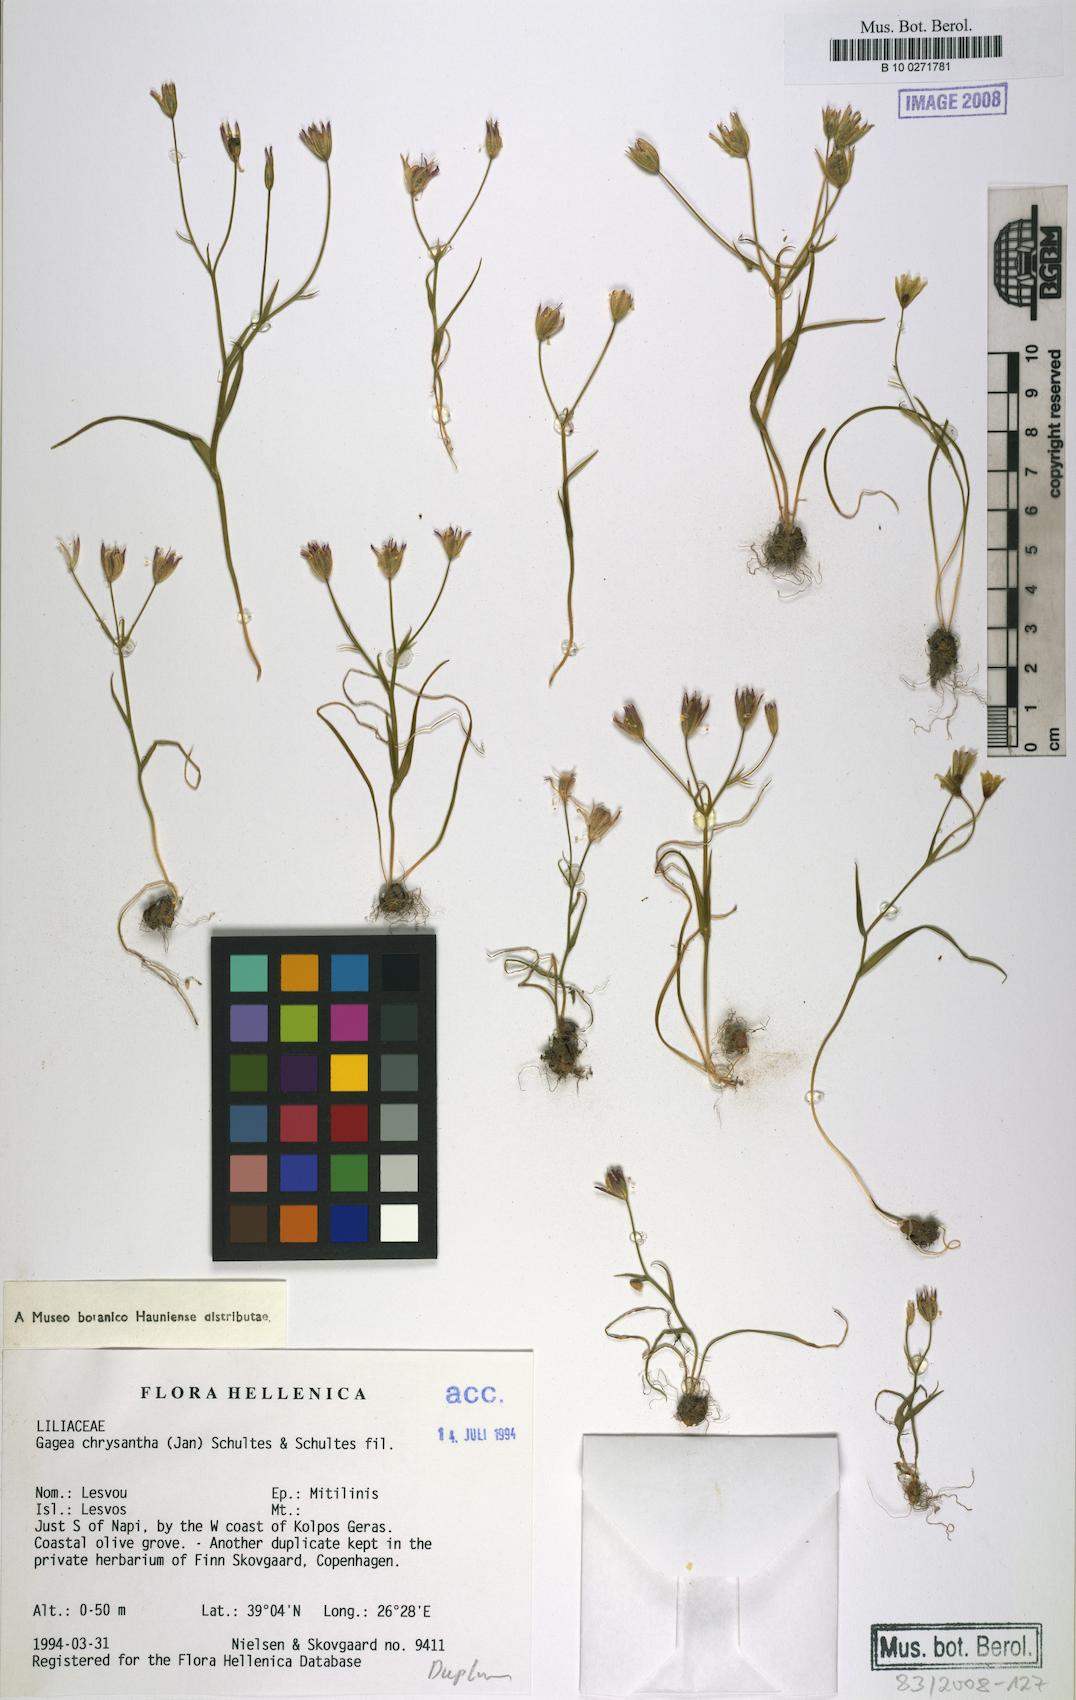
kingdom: Plantae
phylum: Tracheophyta
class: Liliopsida
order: Liliales
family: Liliaceae
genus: Gagea
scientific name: Gagea chrysantha
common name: Golden gagea
